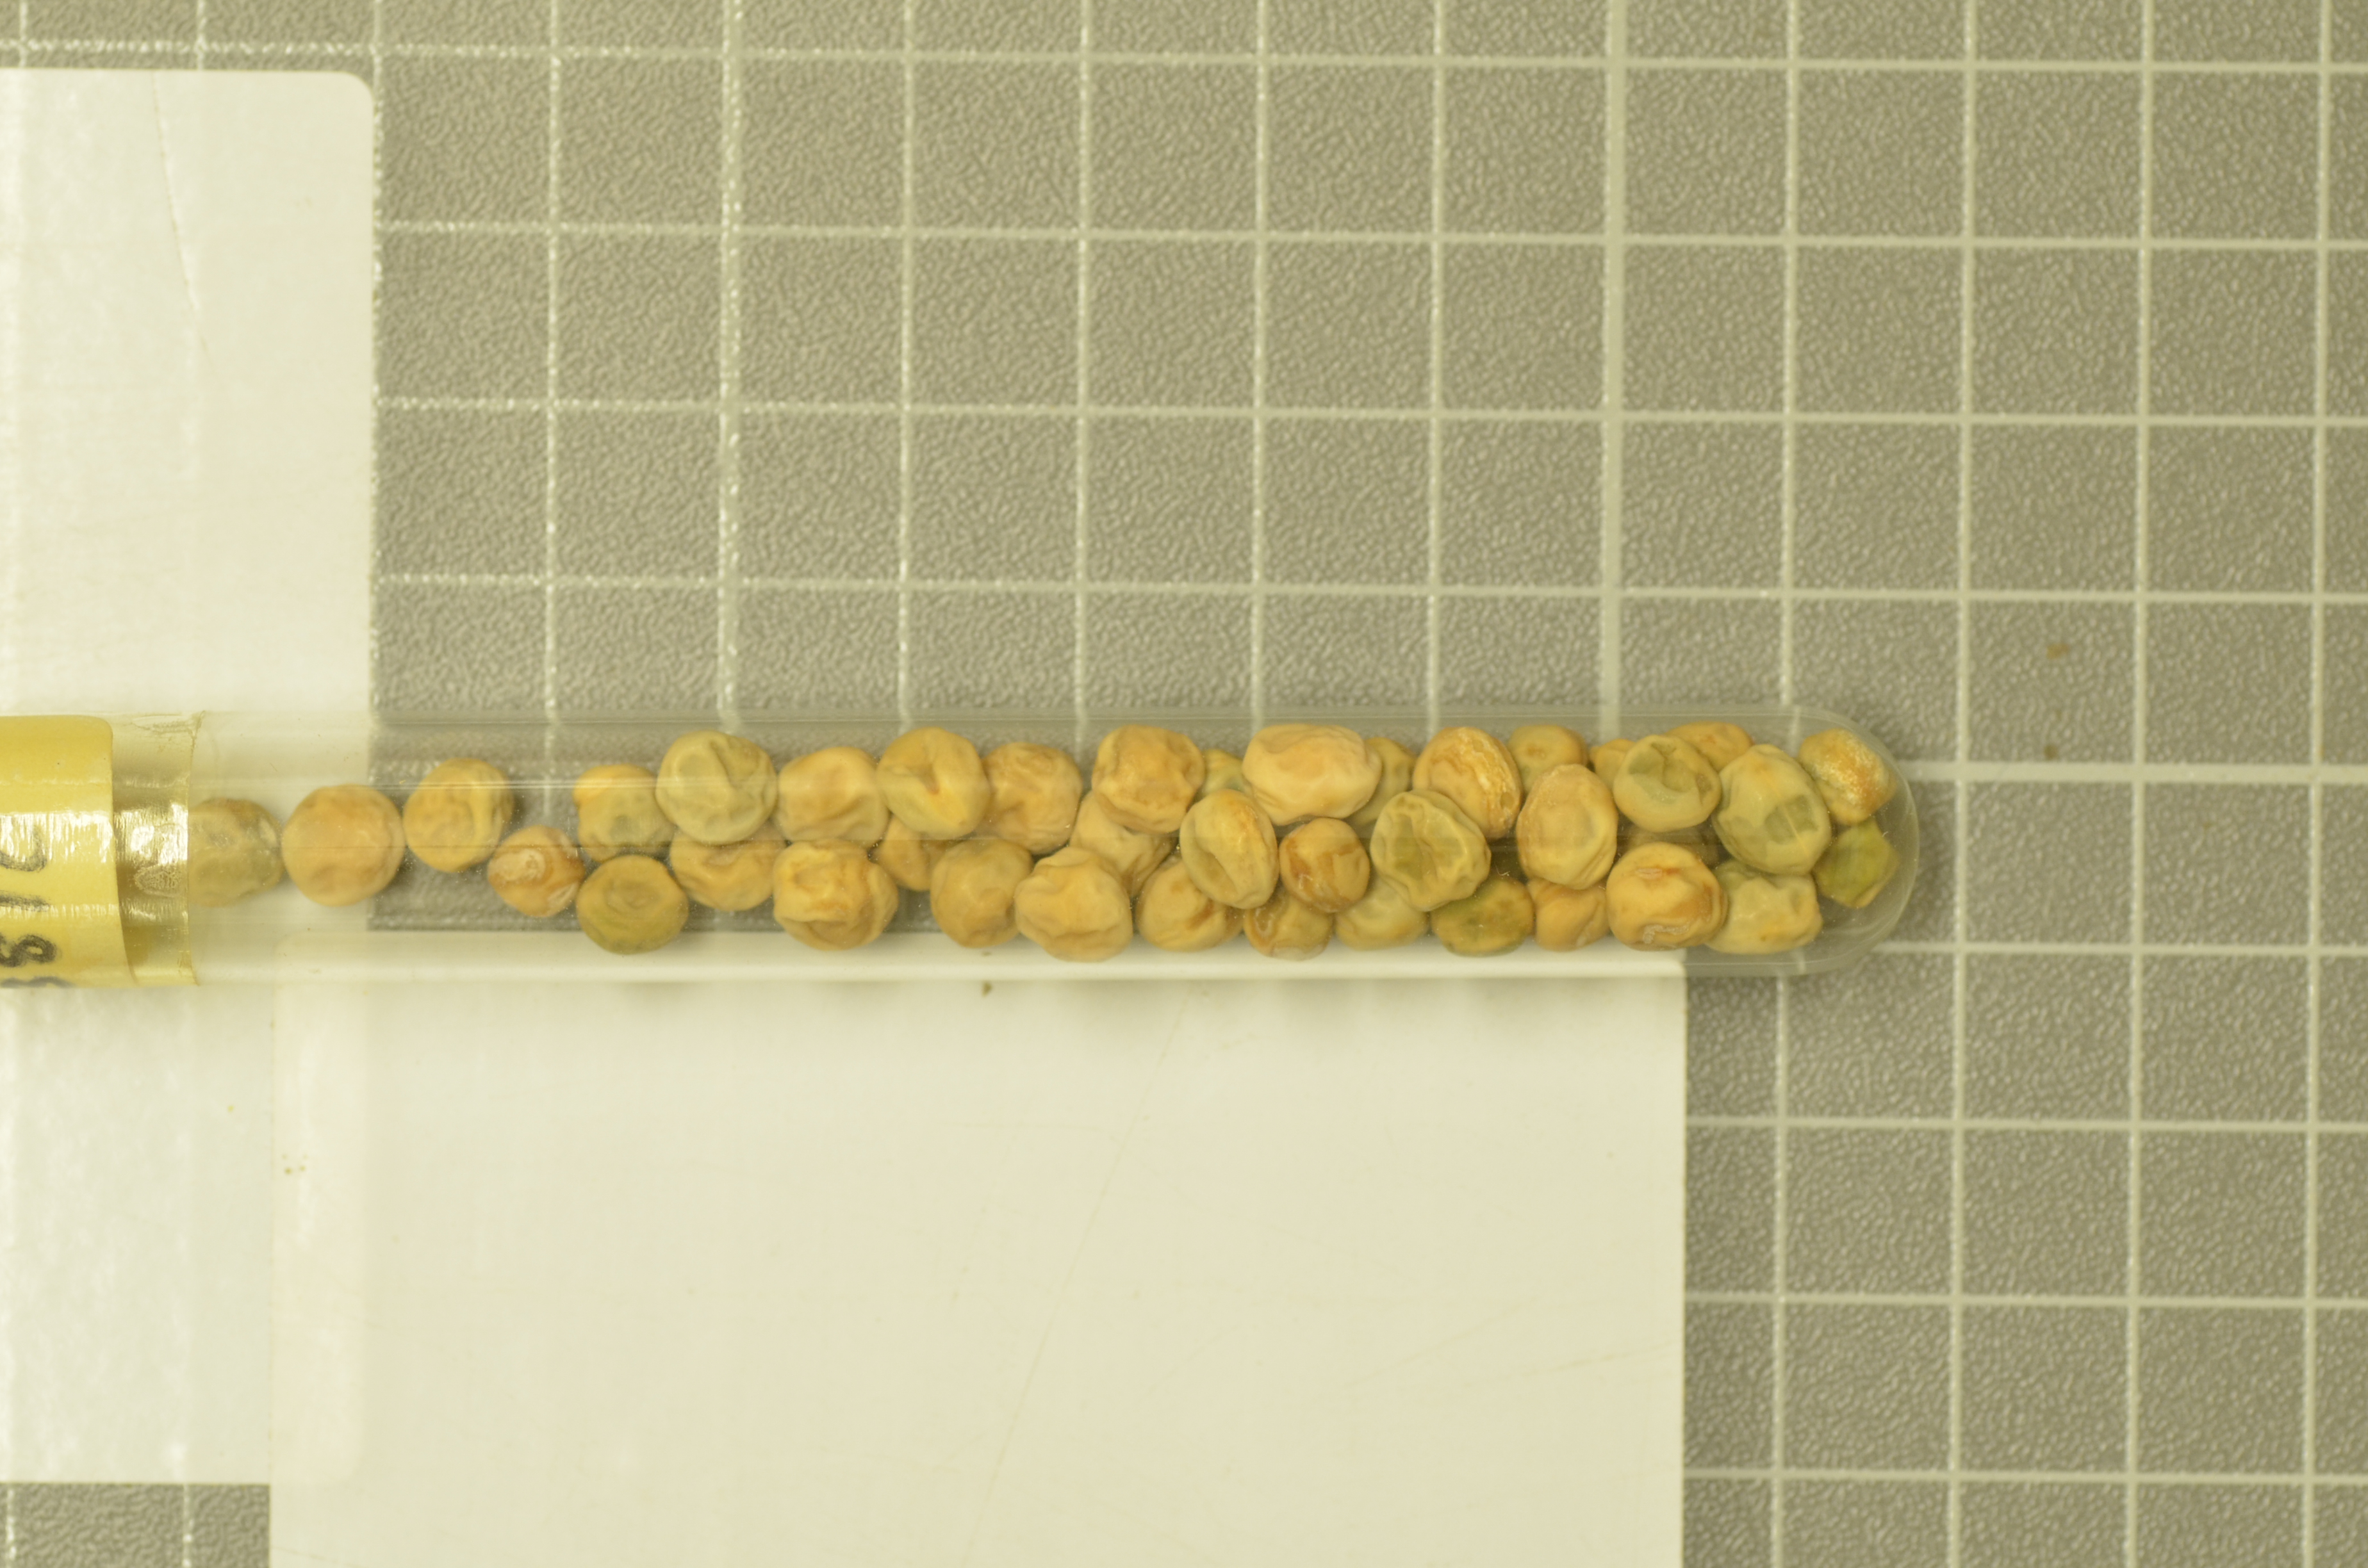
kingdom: Plantae
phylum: Tracheophyta
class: Magnoliopsida
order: Fabales
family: Fabaceae
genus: Lathyrus
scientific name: Lathyrus oleraceus
